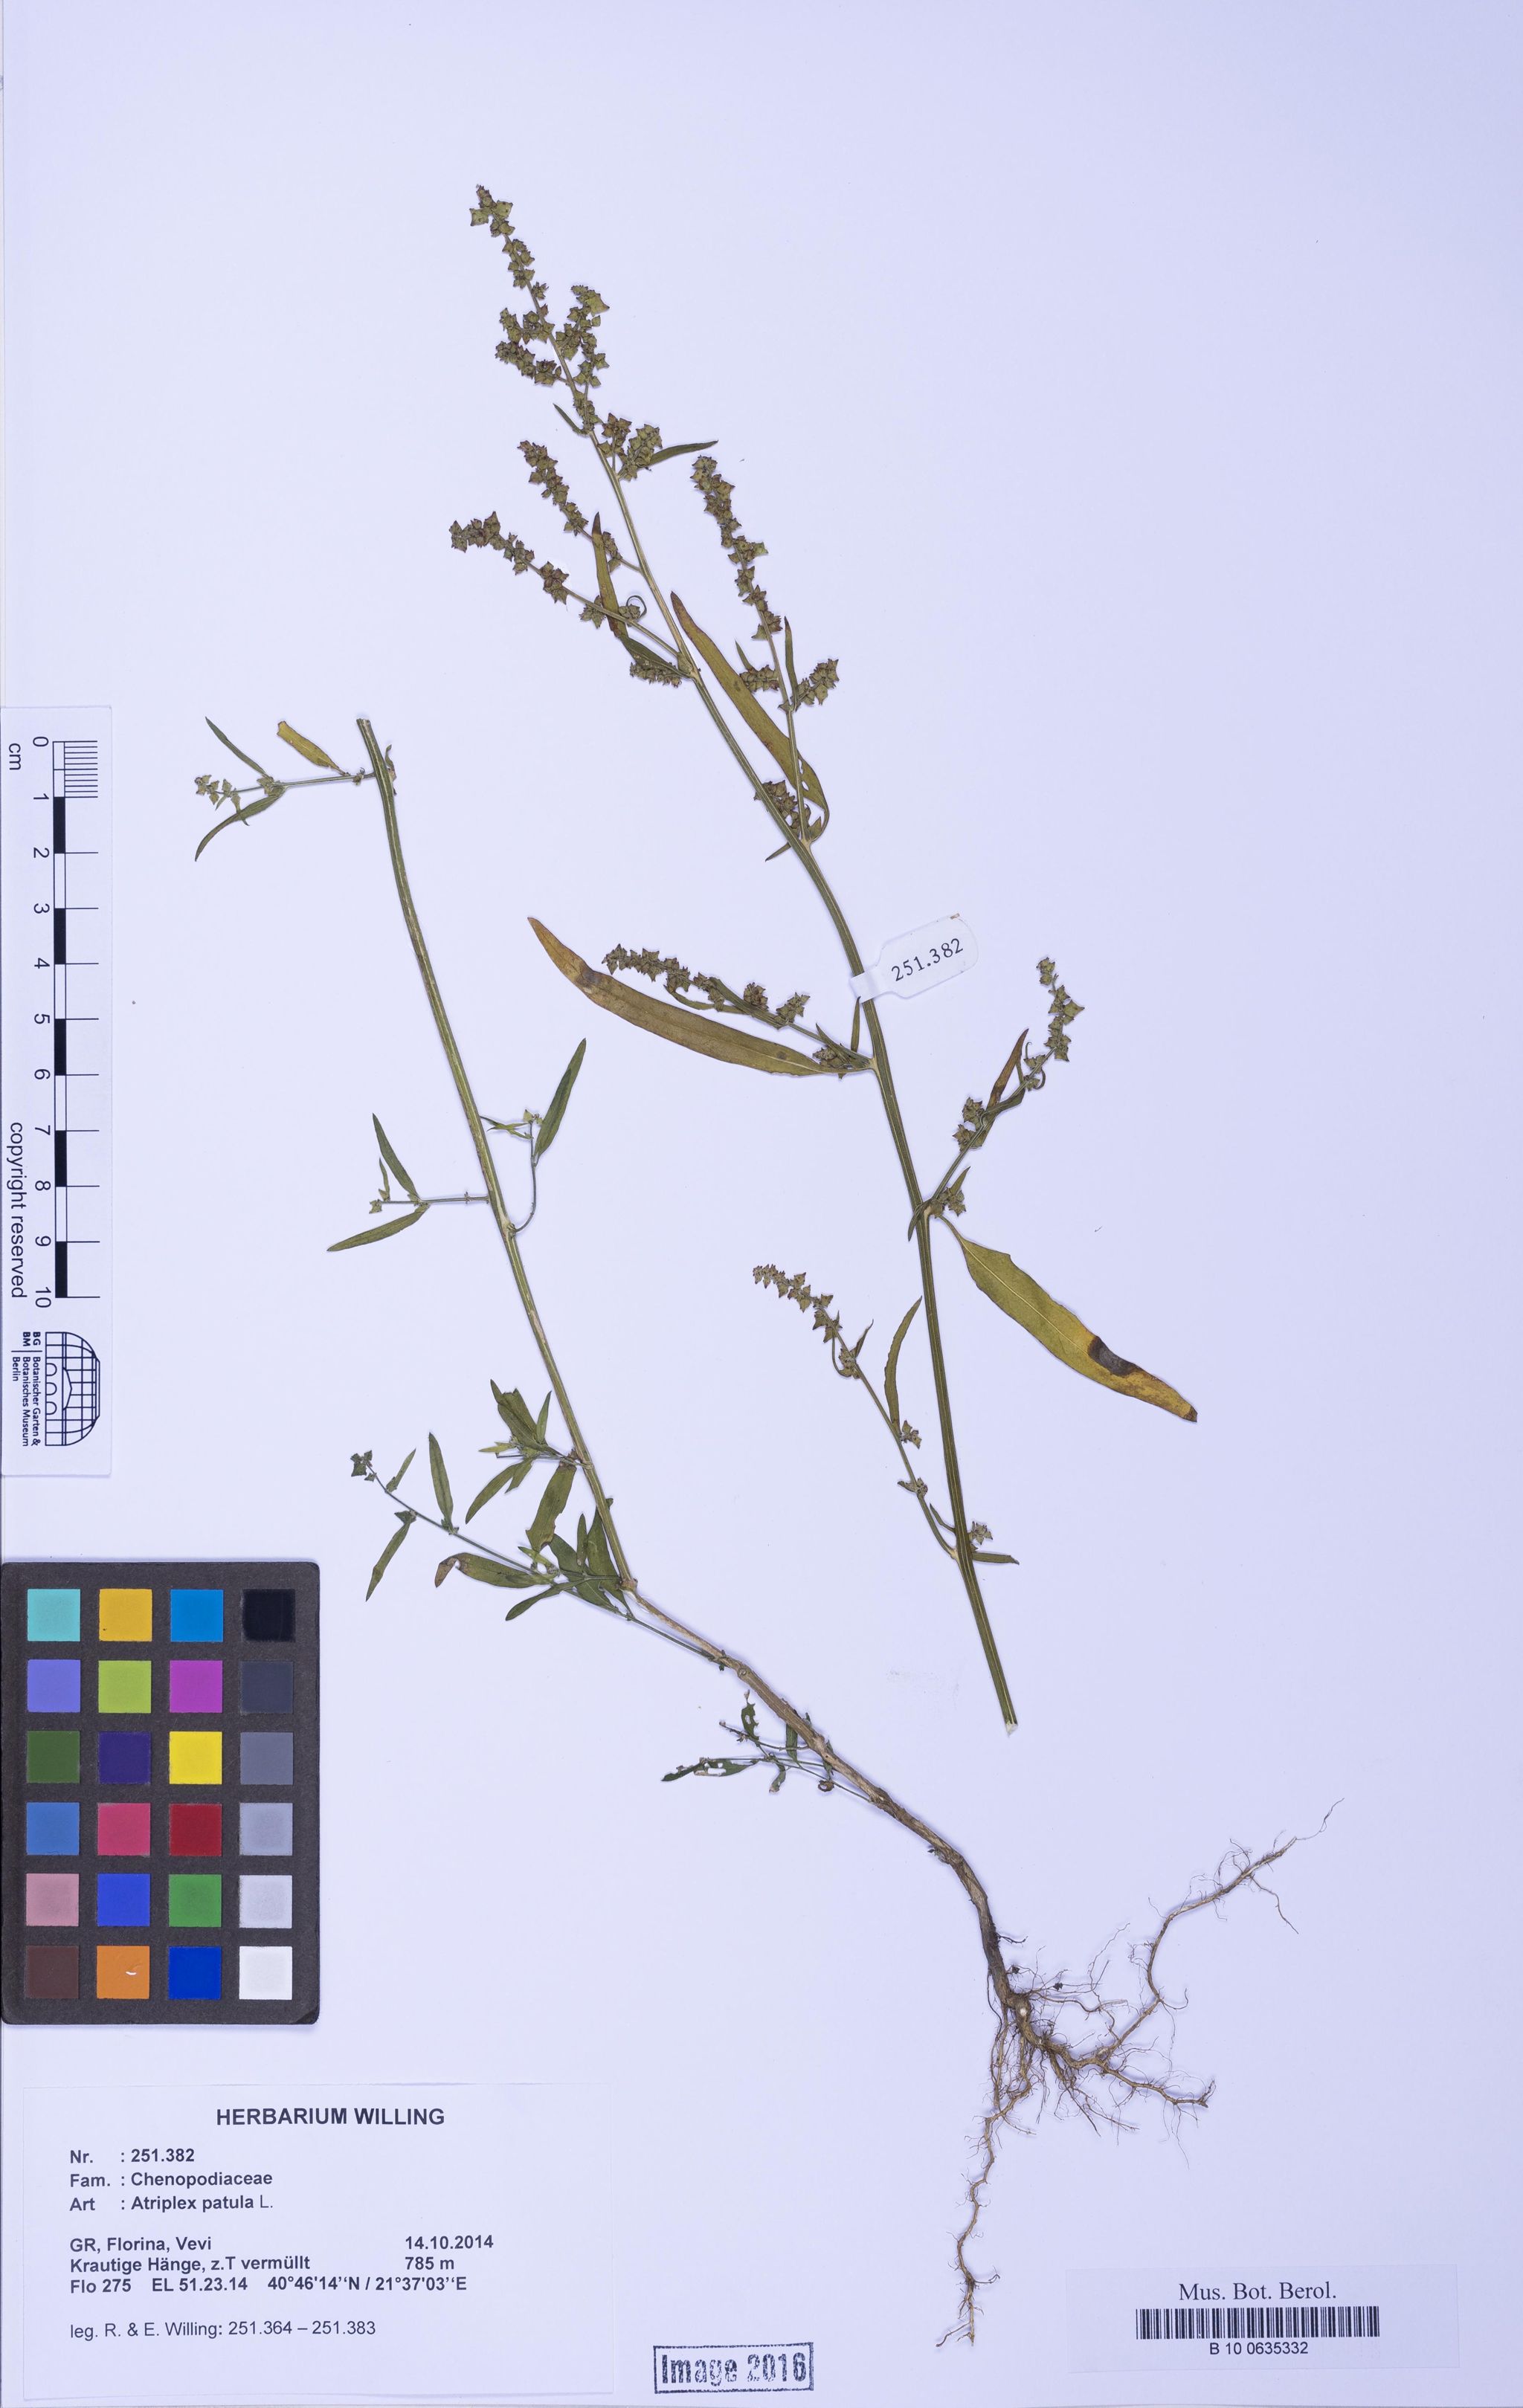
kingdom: Plantae
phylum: Tracheophyta
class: Magnoliopsida
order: Caryophyllales
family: Amaranthaceae
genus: Atriplex
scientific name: Atriplex patula
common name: Common orache
